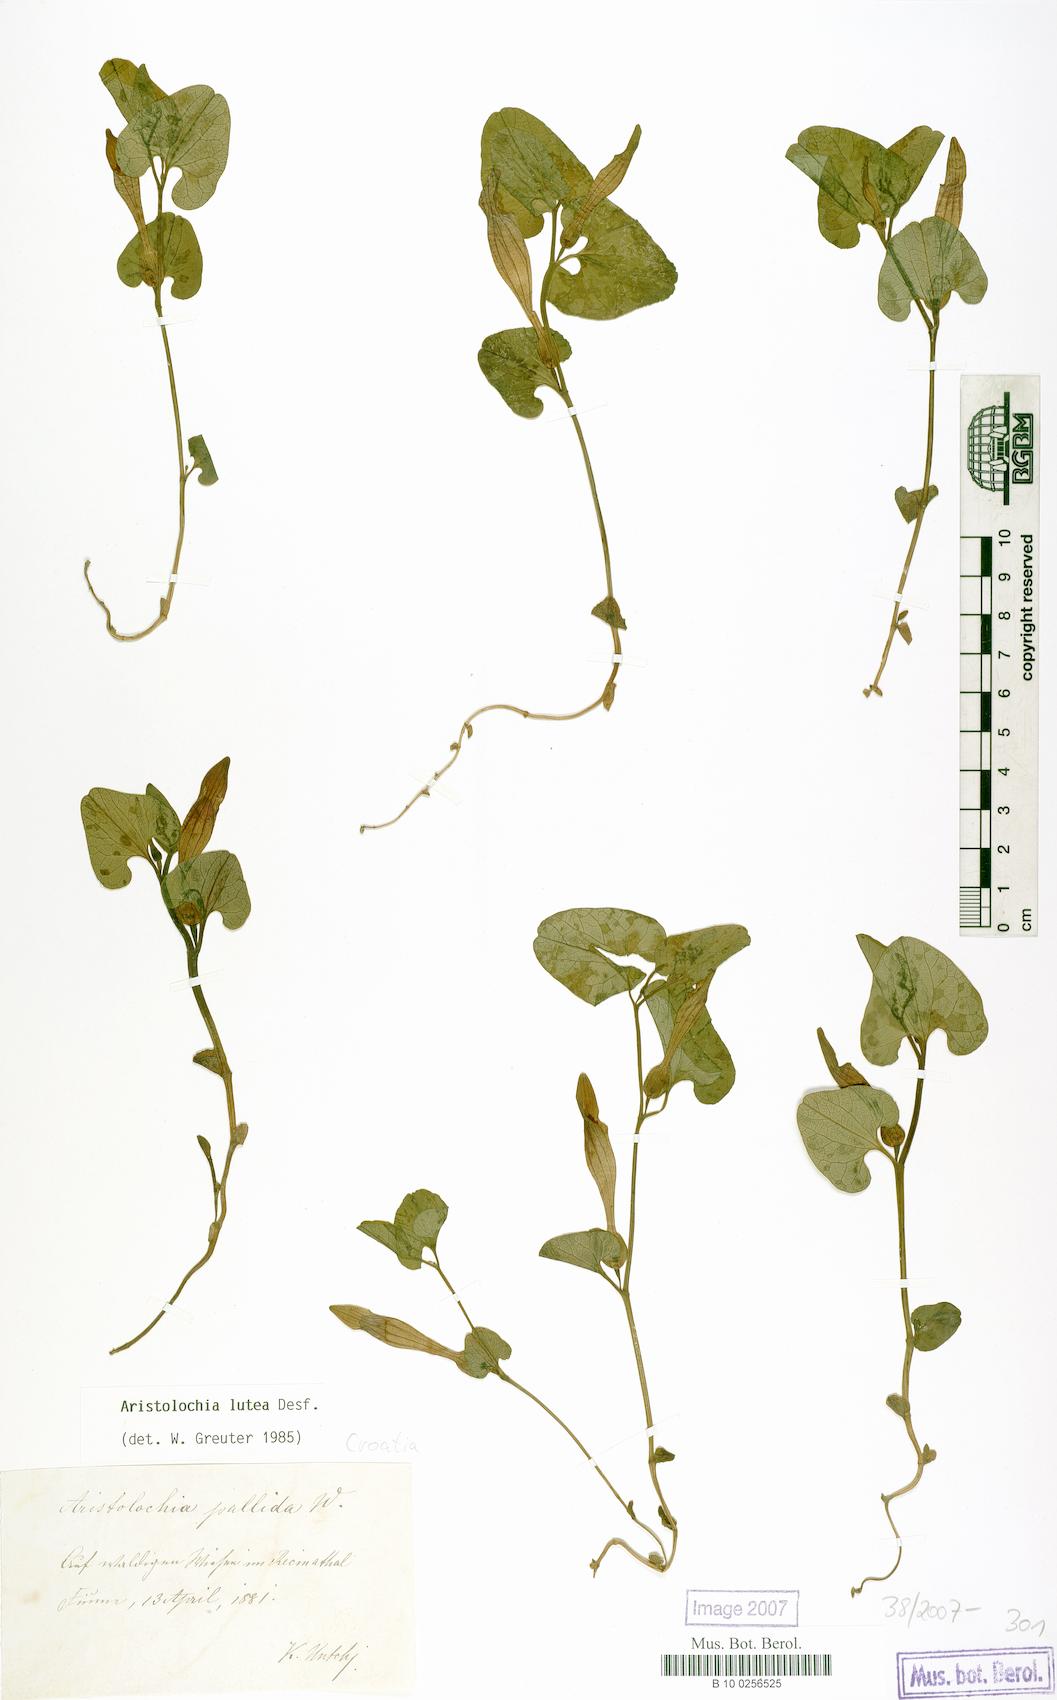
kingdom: Plantae
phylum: Tracheophyta
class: Magnoliopsida
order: Piperales
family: Aristolochiaceae
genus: Aristolochia
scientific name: Aristolochia lutea
